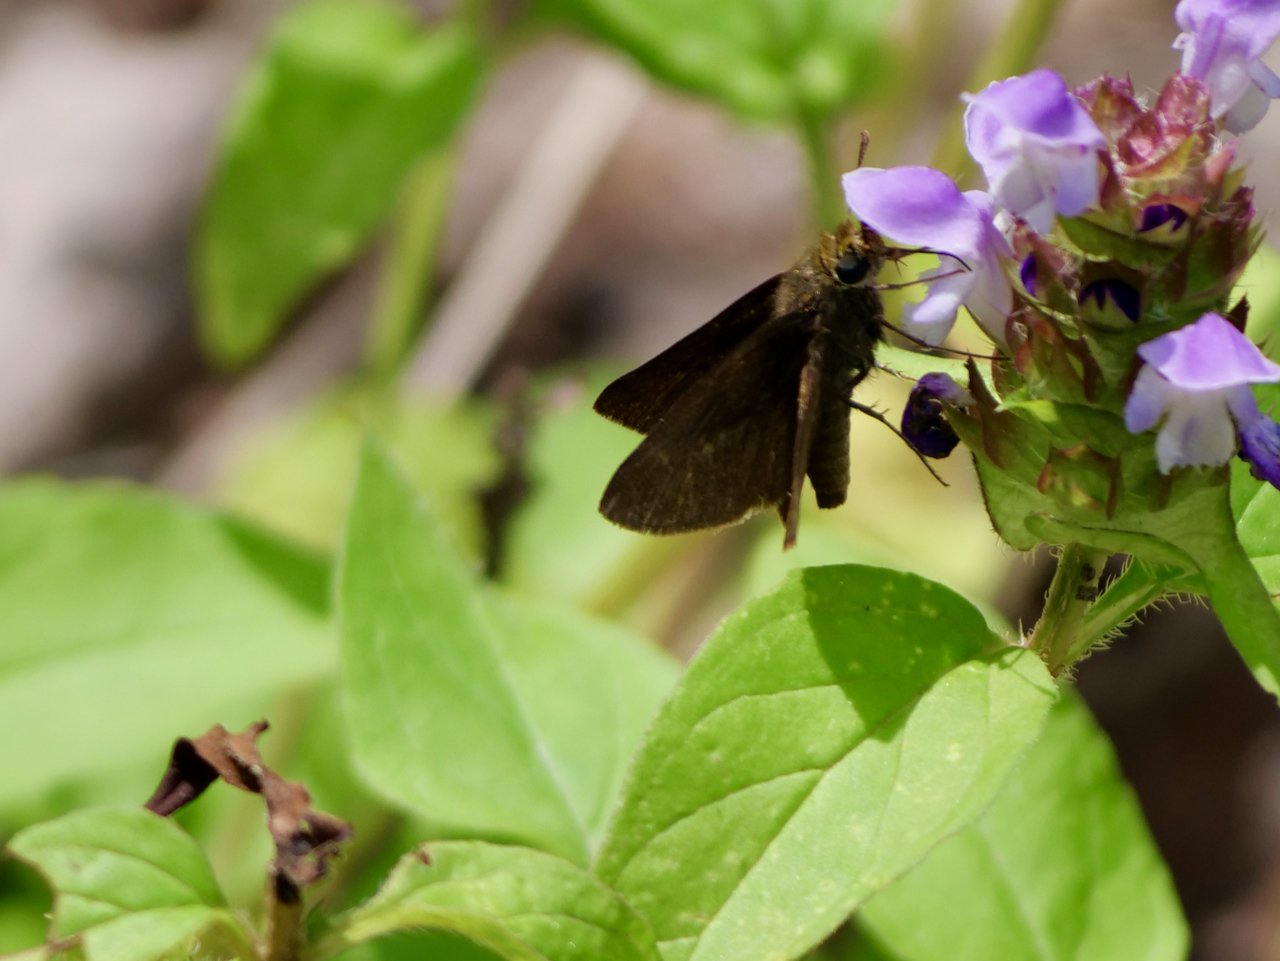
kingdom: Animalia
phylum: Arthropoda
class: Insecta
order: Lepidoptera
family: Hesperiidae
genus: Euphyes
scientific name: Euphyes vestris
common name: Dun Skipper
